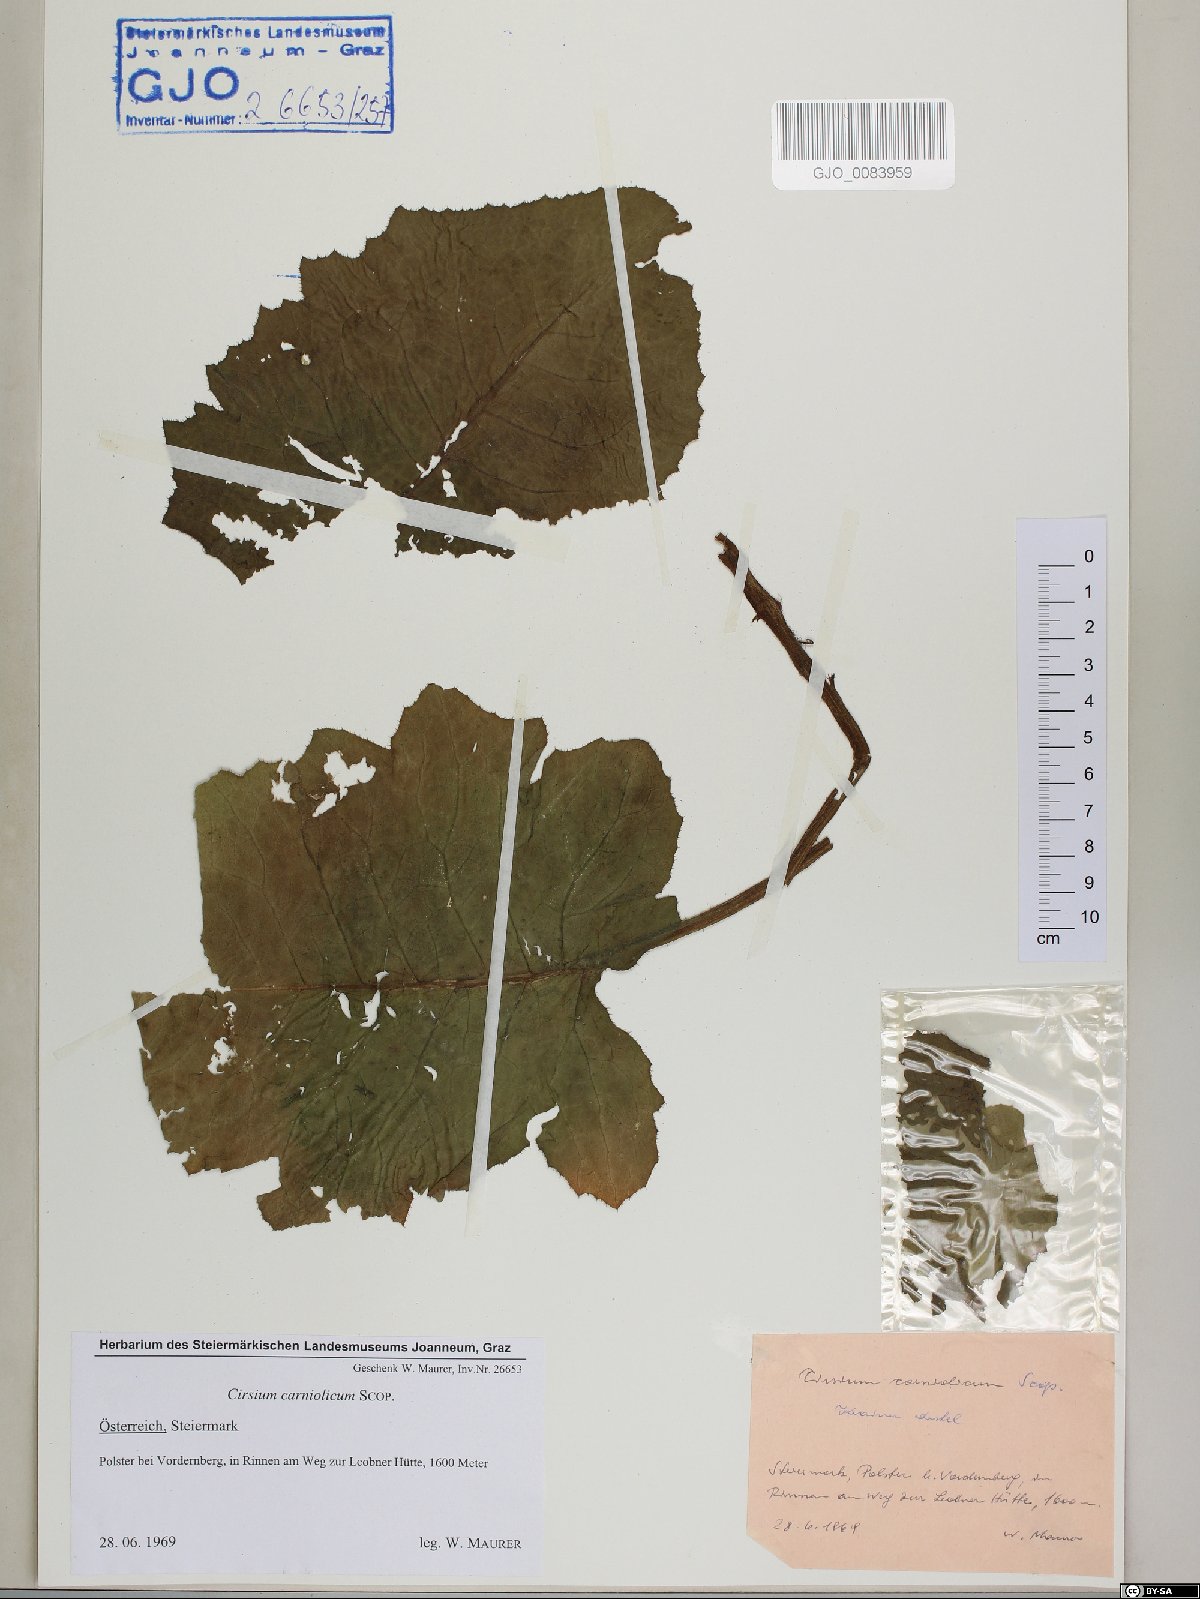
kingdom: Plantae
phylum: Tracheophyta
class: Magnoliopsida
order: Asterales
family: Asteraceae
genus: Cirsium
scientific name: Cirsium carniolicum
